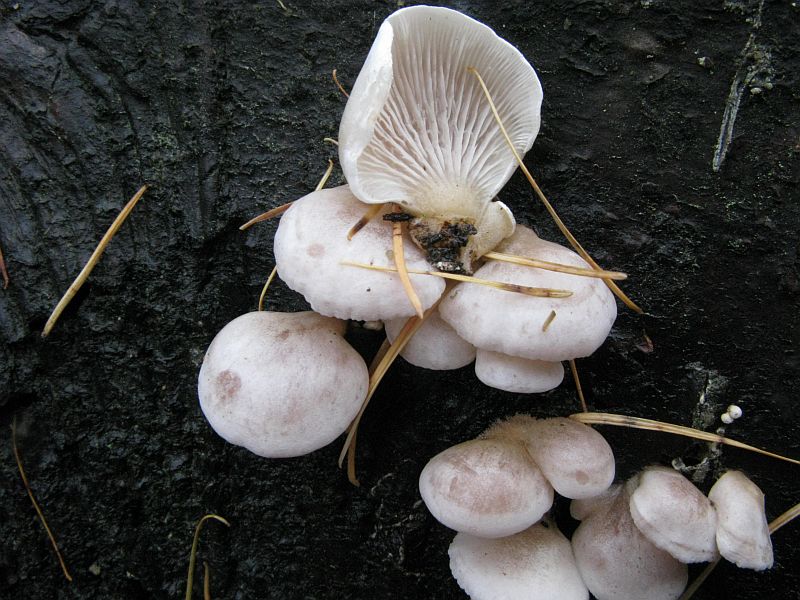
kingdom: Fungi
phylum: Basidiomycota
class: Agaricomycetes
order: Agaricales
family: Mycenaceae
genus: Panellus
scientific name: Panellus mitis
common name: mild epaulethat
